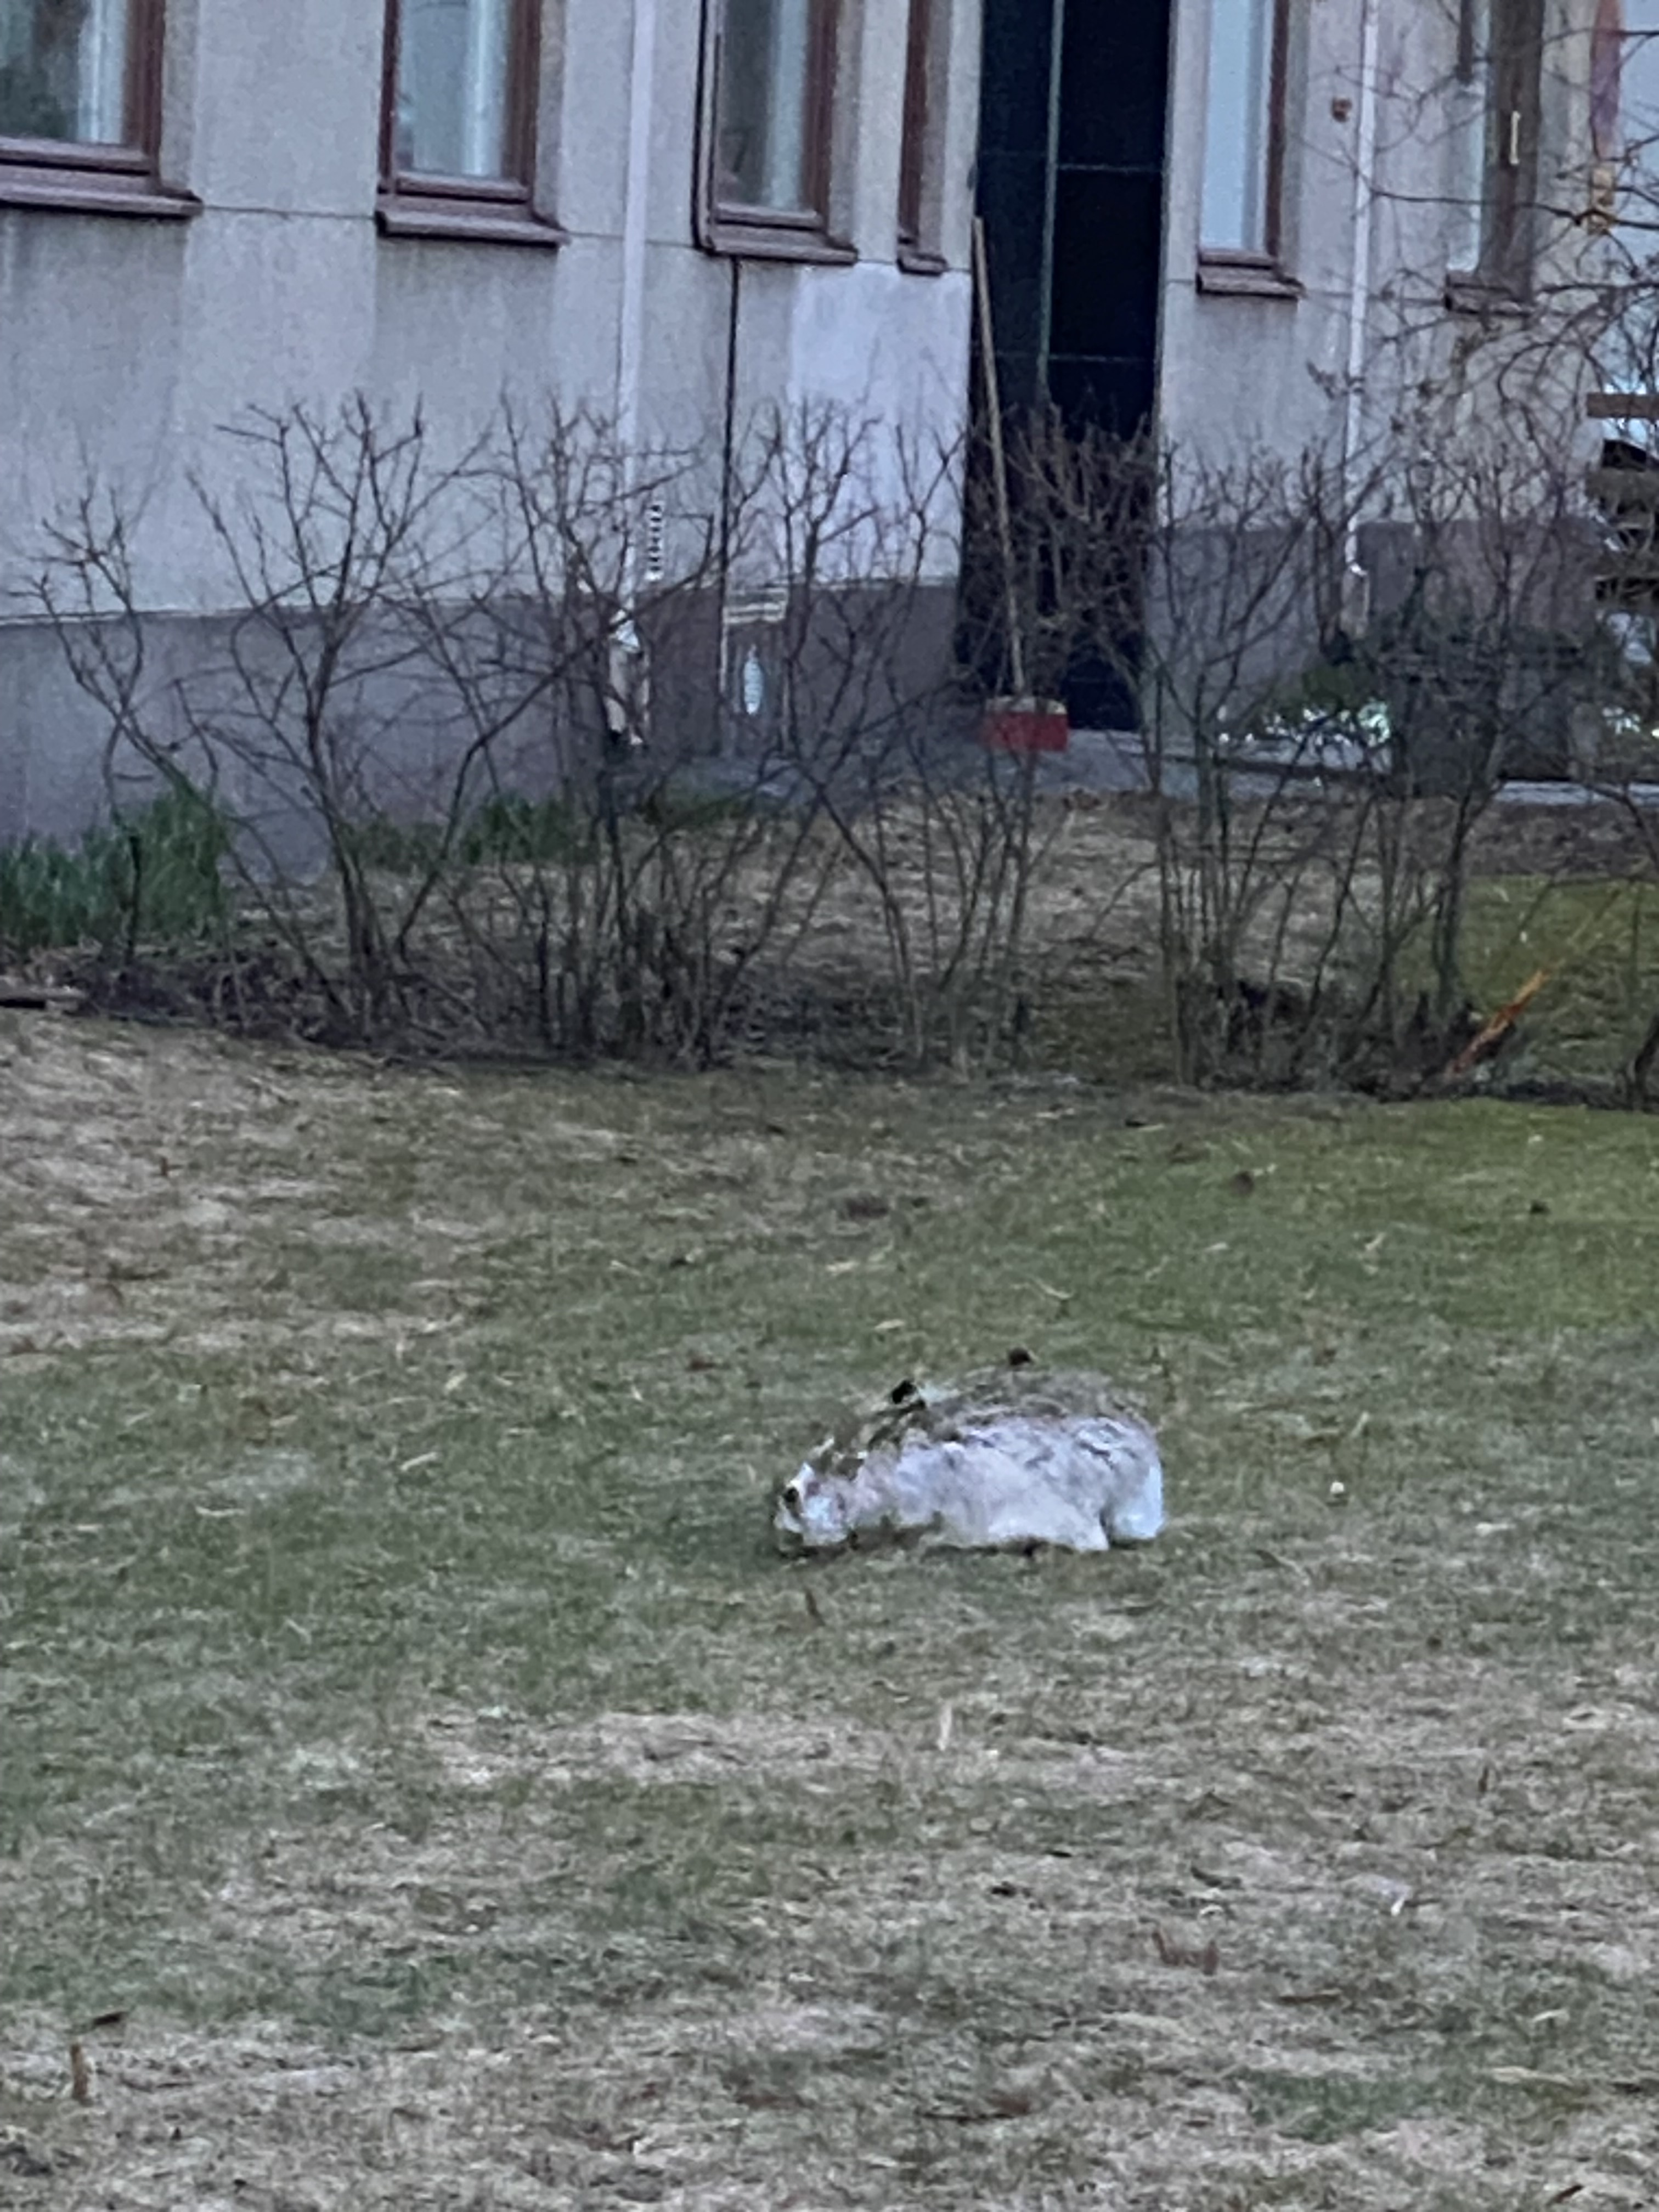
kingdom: Animalia
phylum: Chordata
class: Mammalia
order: Lagomorpha
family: Leporidae
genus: Lepus
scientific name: Lepus
